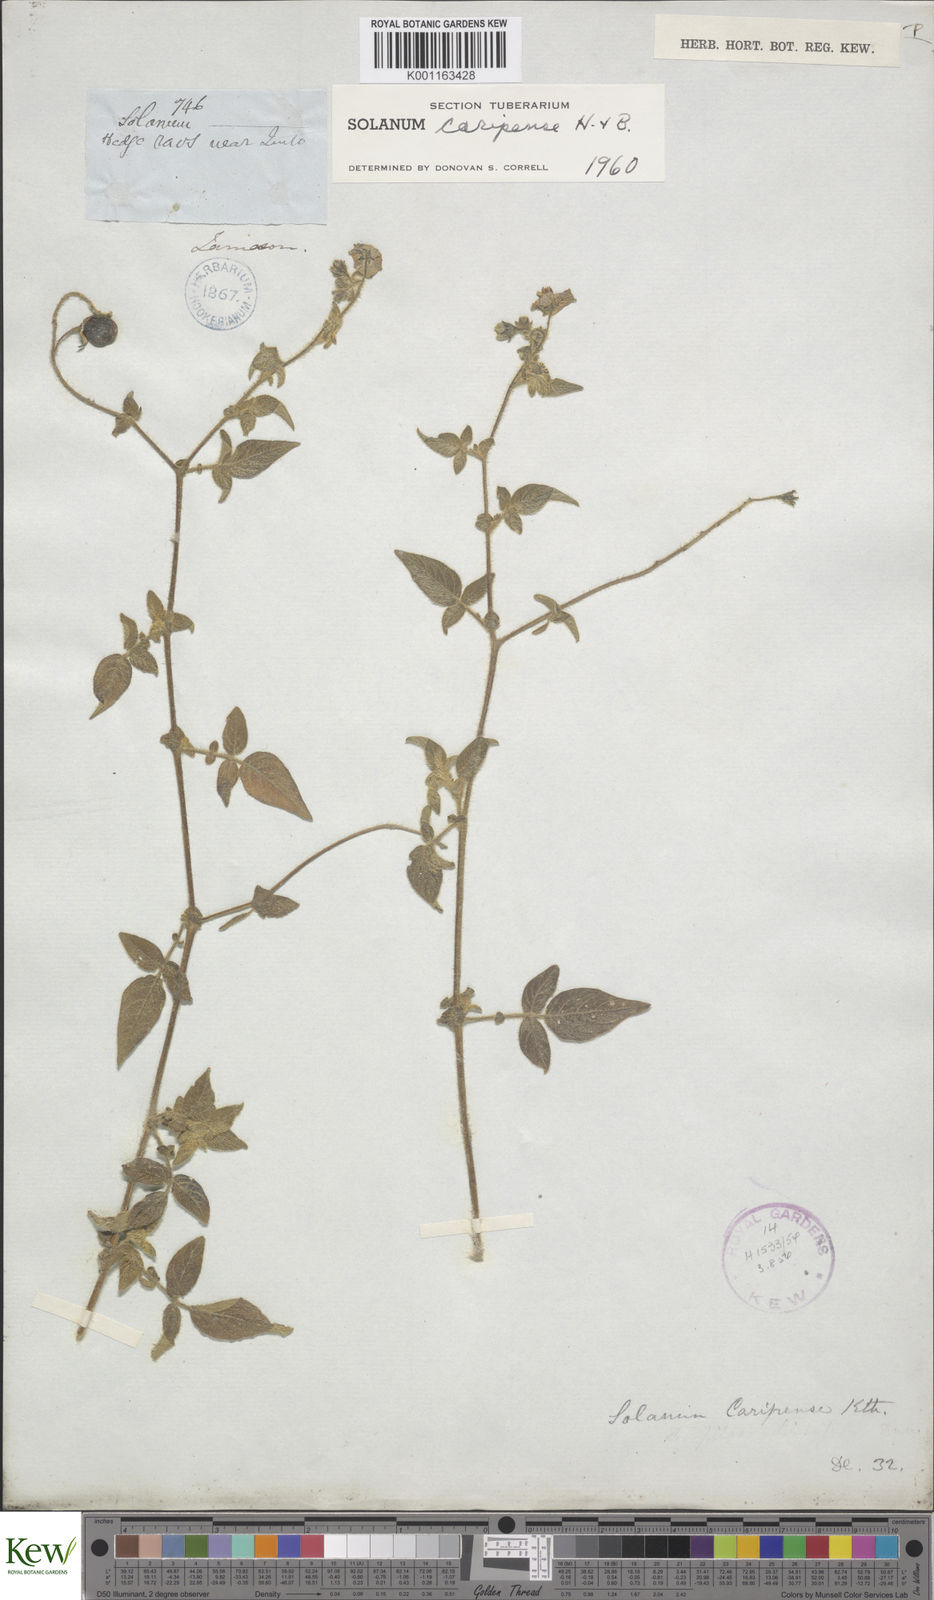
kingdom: Plantae
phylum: Tracheophyta
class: Magnoliopsida
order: Solanales
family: Solanaceae
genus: Solanum
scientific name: Solanum caripense
